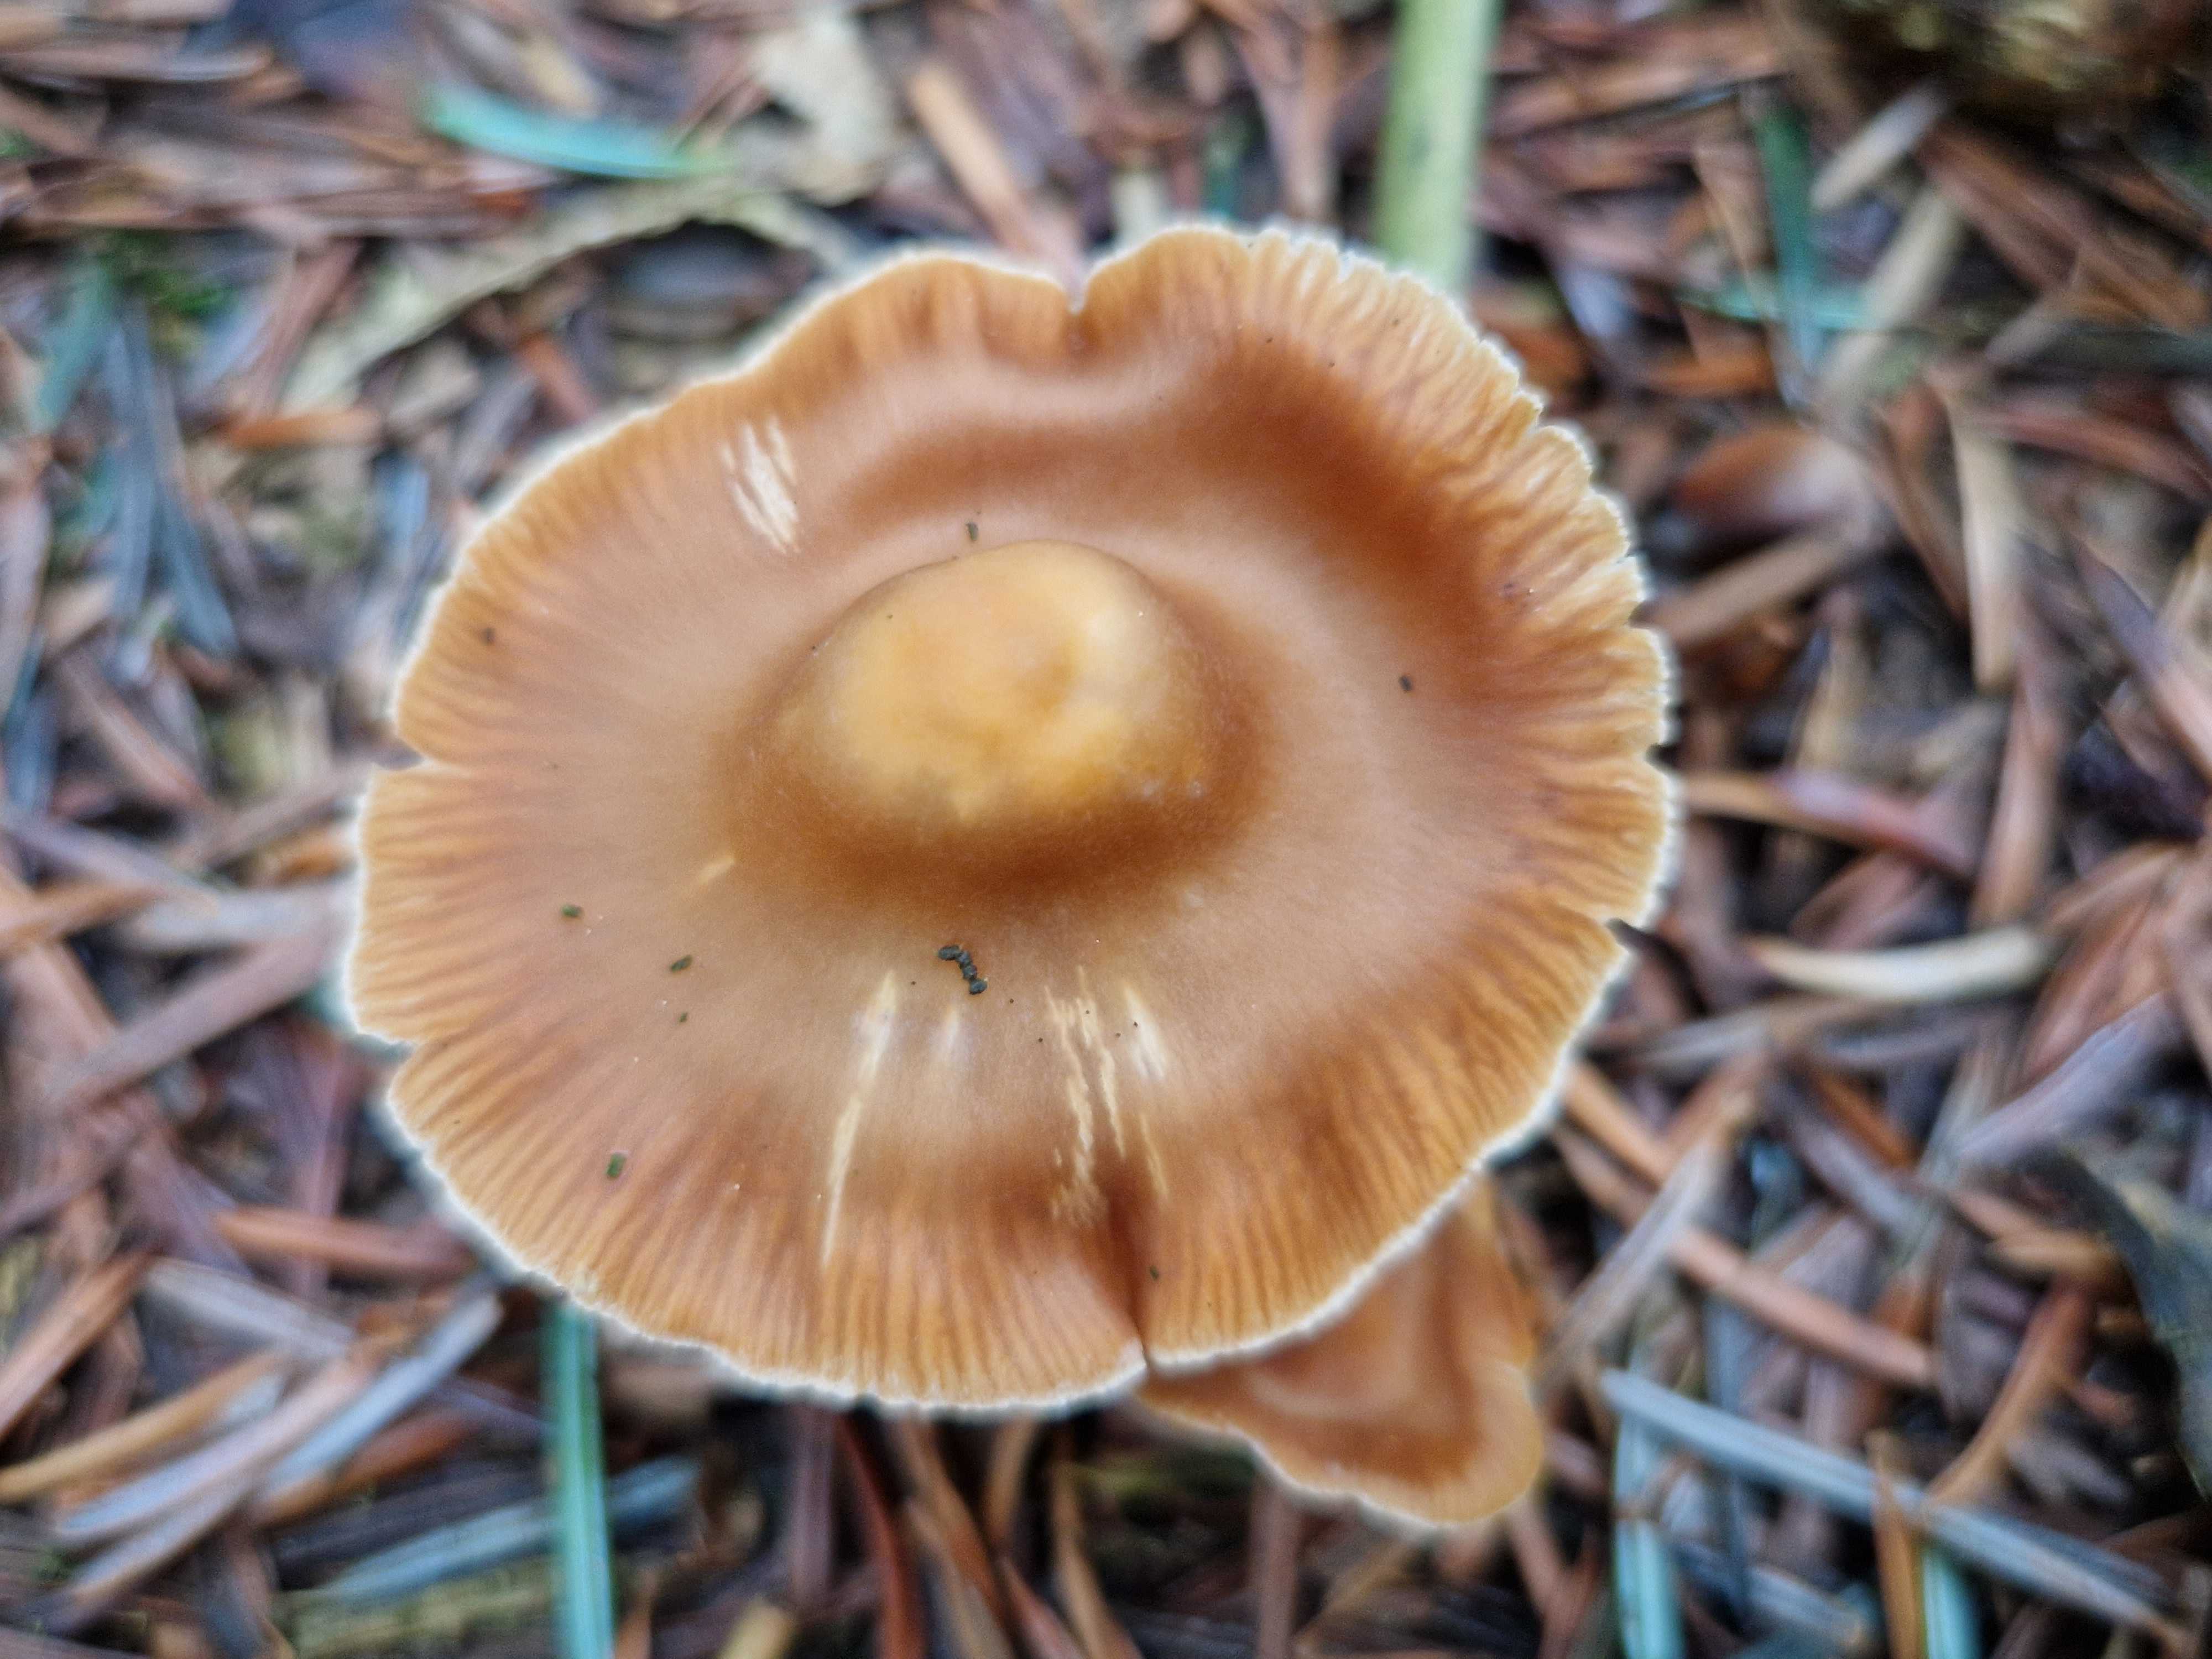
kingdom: Fungi
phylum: Basidiomycota
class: Agaricomycetes
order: Agaricales
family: Cortinariaceae
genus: Cortinarius
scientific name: Cortinarius
